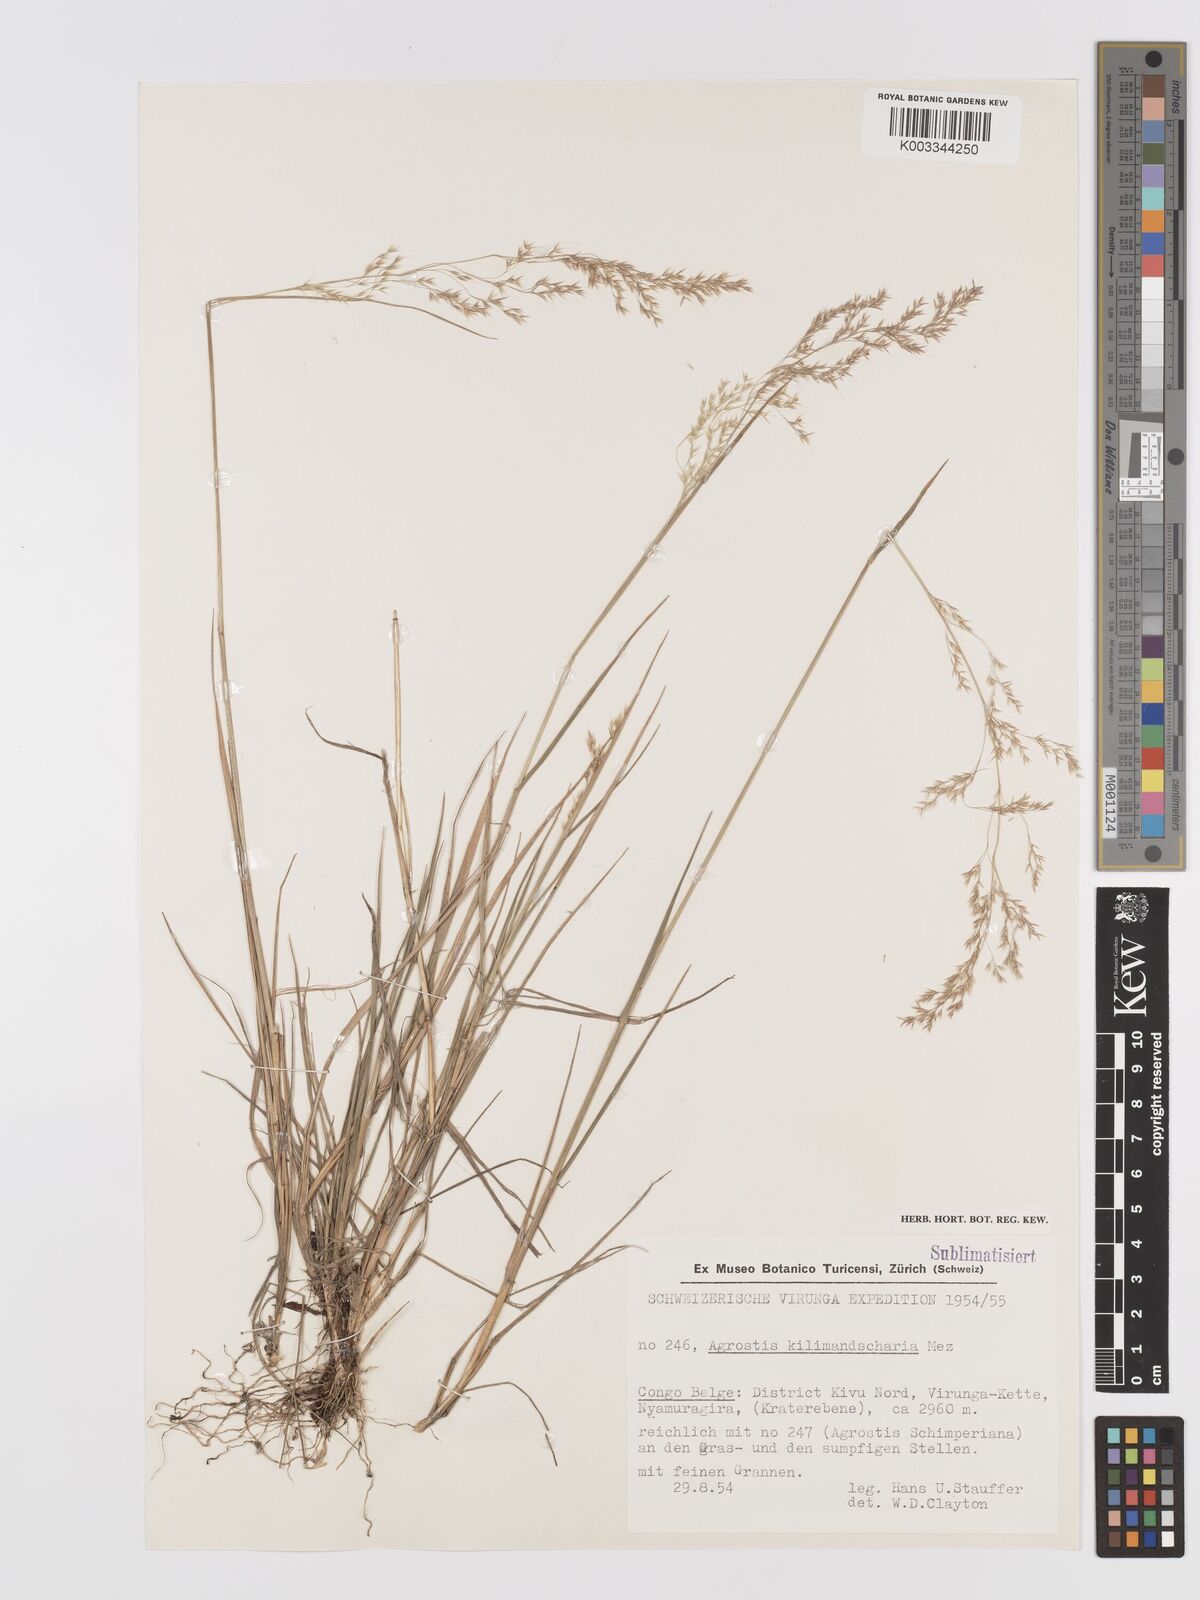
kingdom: Plantae
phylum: Tracheophyta
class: Liliopsida
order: Poales
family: Poaceae
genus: Agrostis
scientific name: Agrostis kilimandscharica
